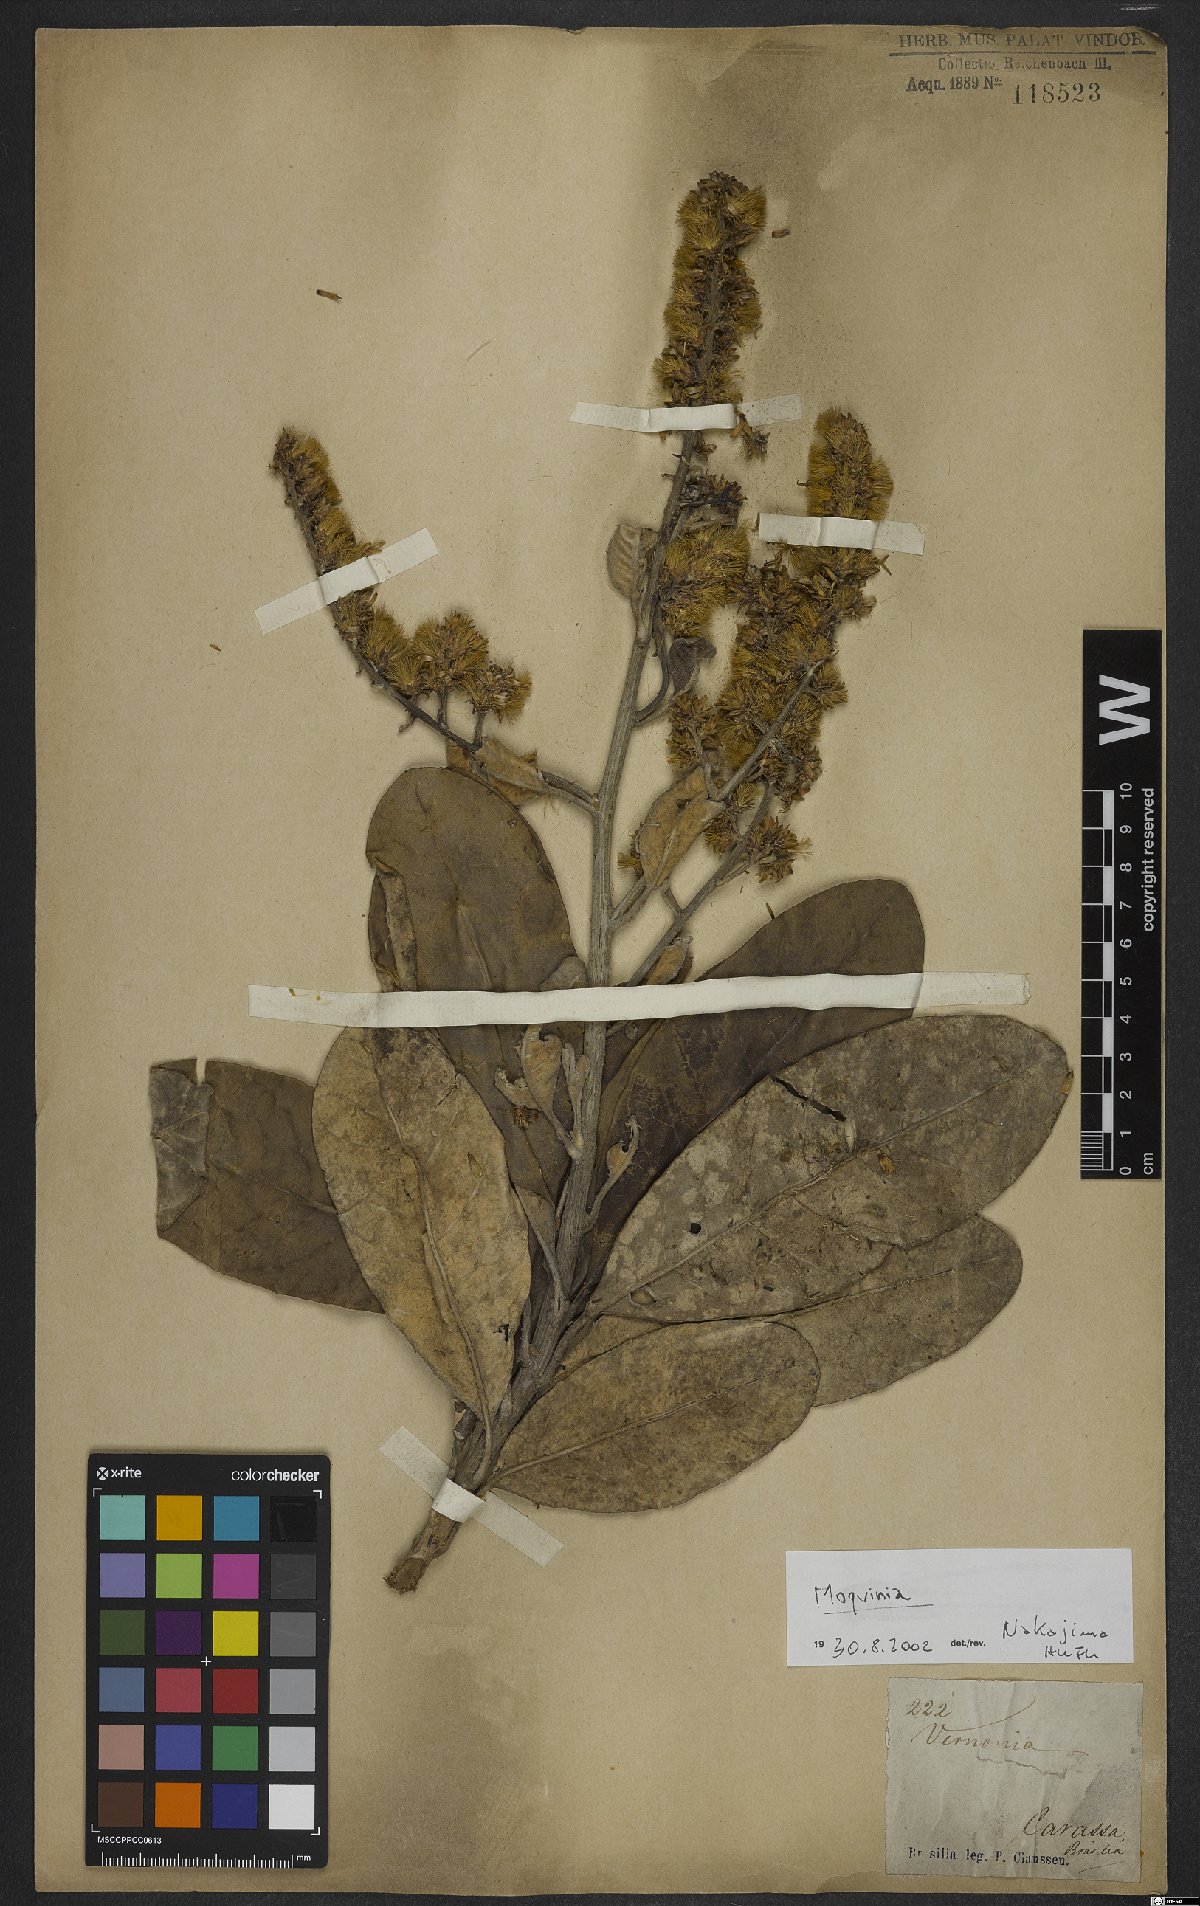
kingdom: Plantae
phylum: Tracheophyta
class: Magnoliopsida
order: Asterales
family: Asteraceae
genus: Moquinia
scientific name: Moquinia
